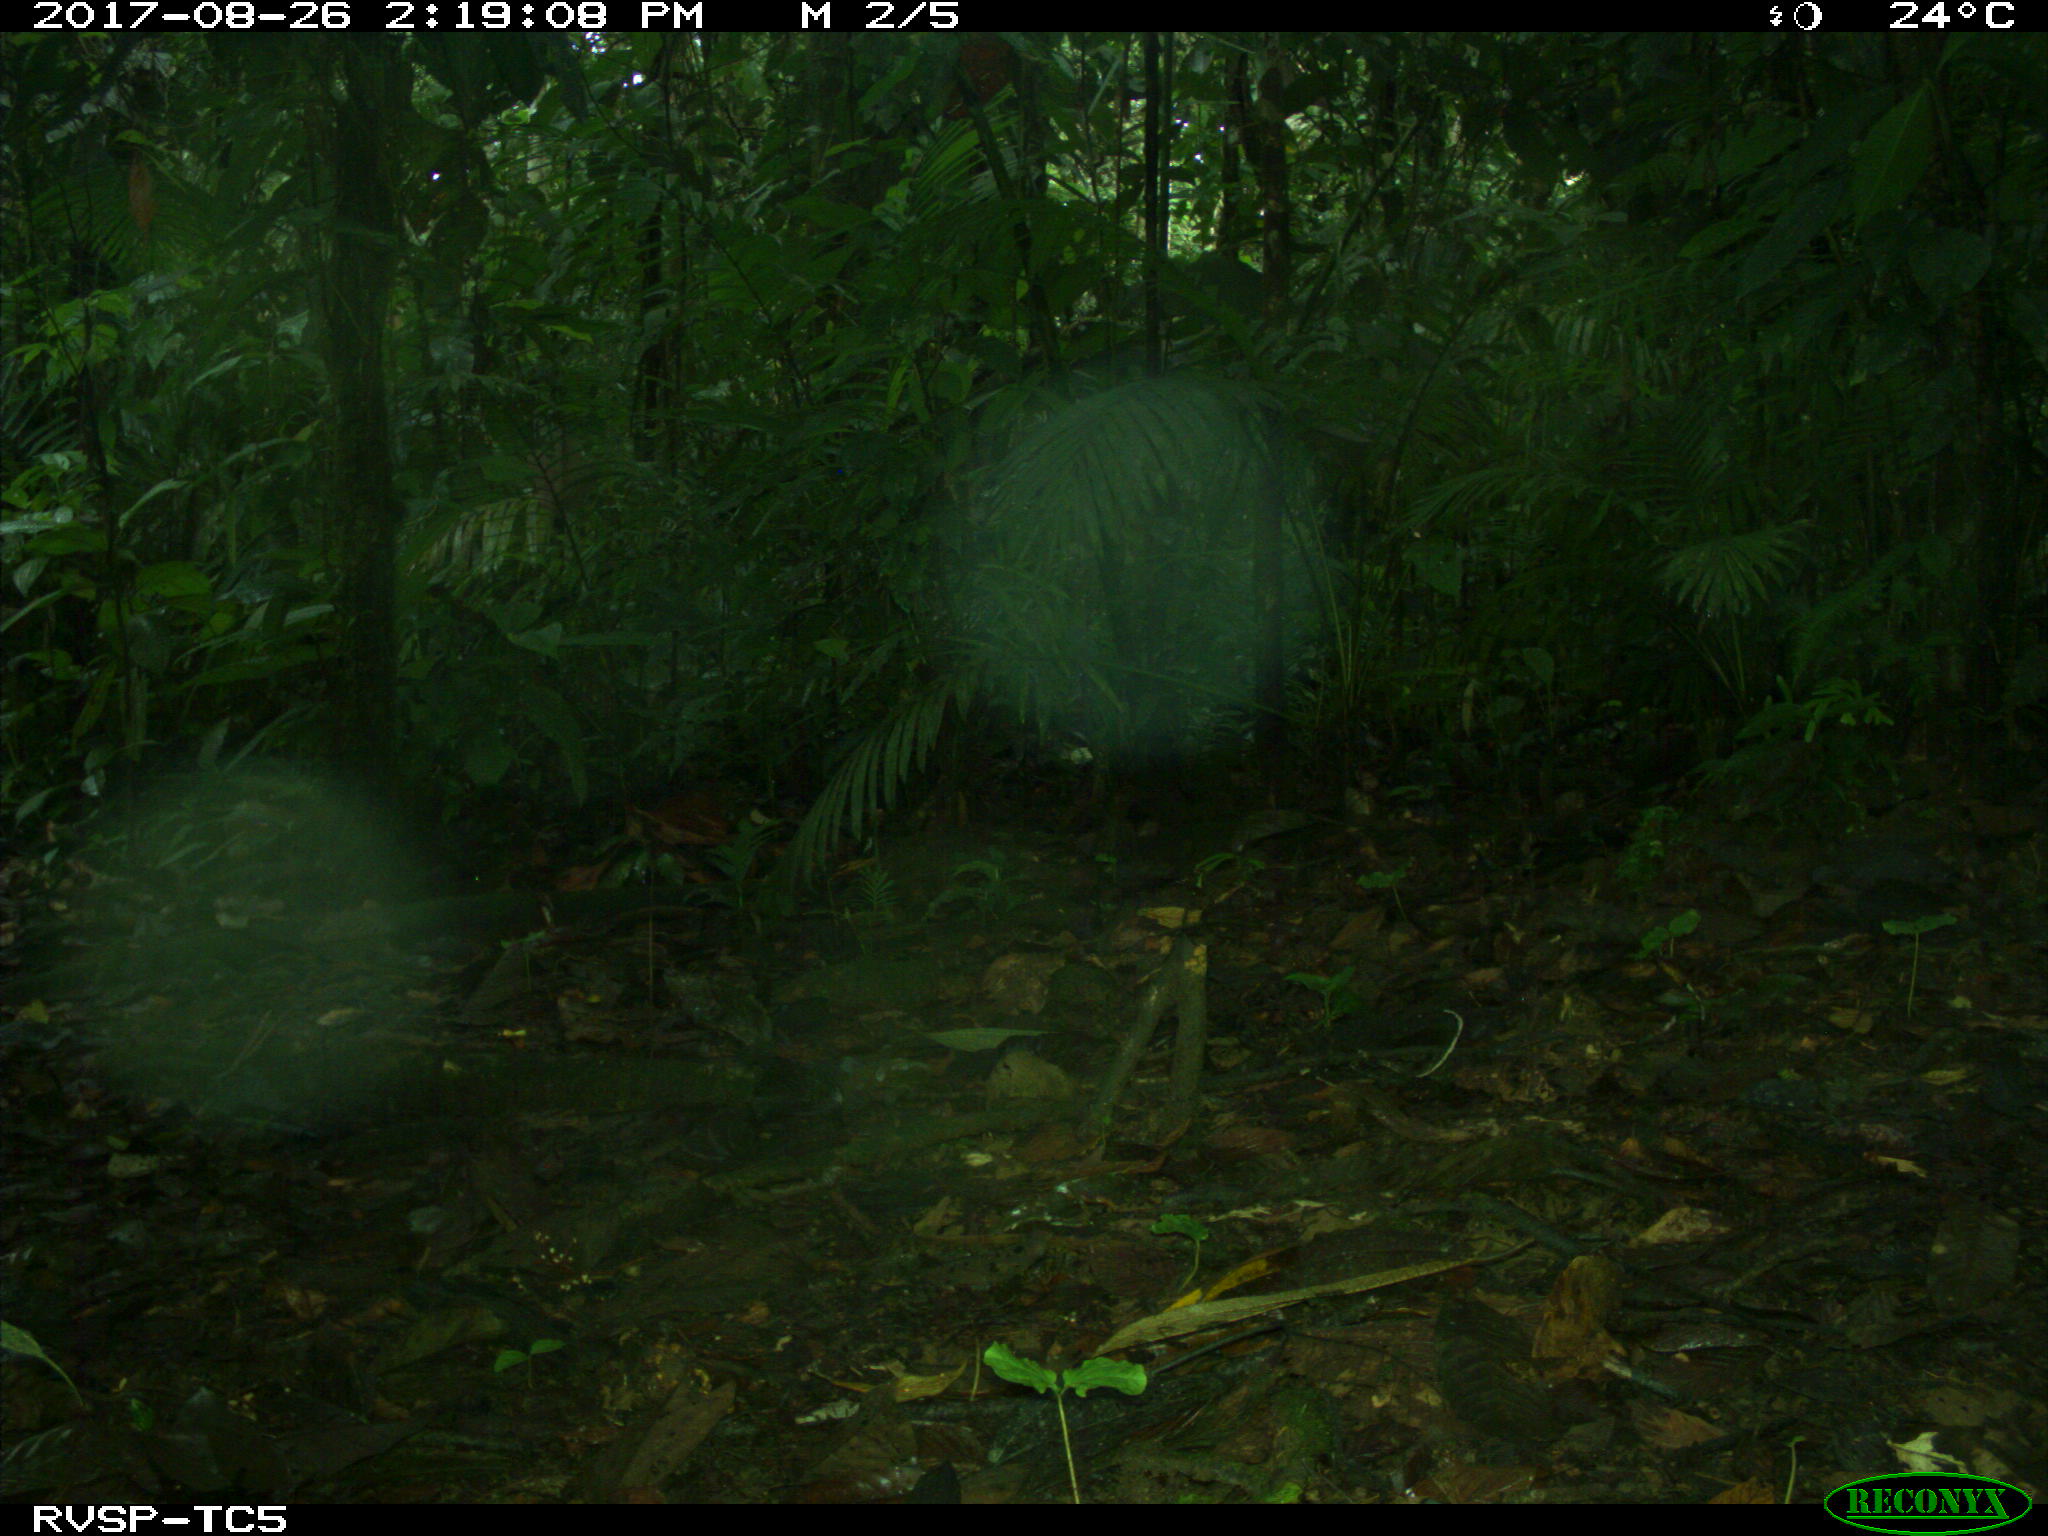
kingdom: Animalia
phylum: Chordata
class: Mammalia
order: Rodentia
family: Dasyproctidae
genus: Dasyprocta
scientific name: Dasyprocta punctata
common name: Central american agouti
